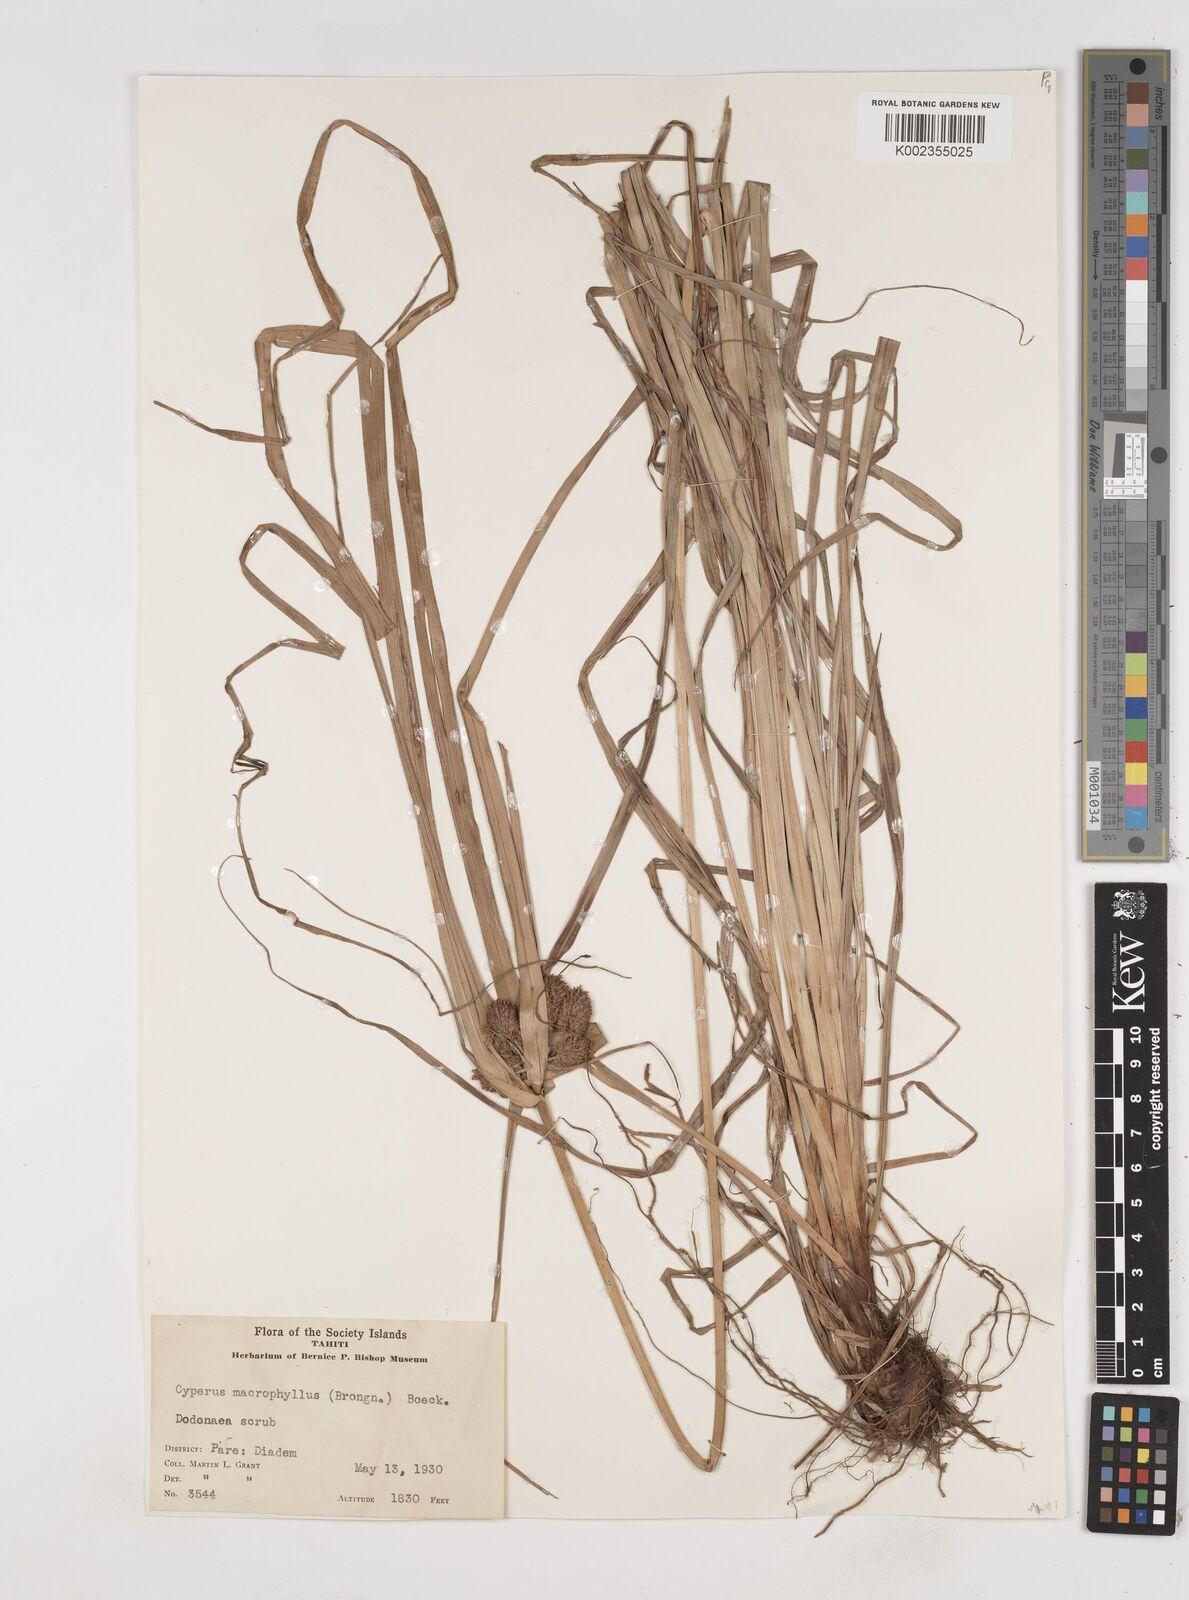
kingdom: Plantae
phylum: Tracheophyta
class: Liliopsida
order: Poales
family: Cyperaceae
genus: Cyperus
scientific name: Cyperus macrophyllus
